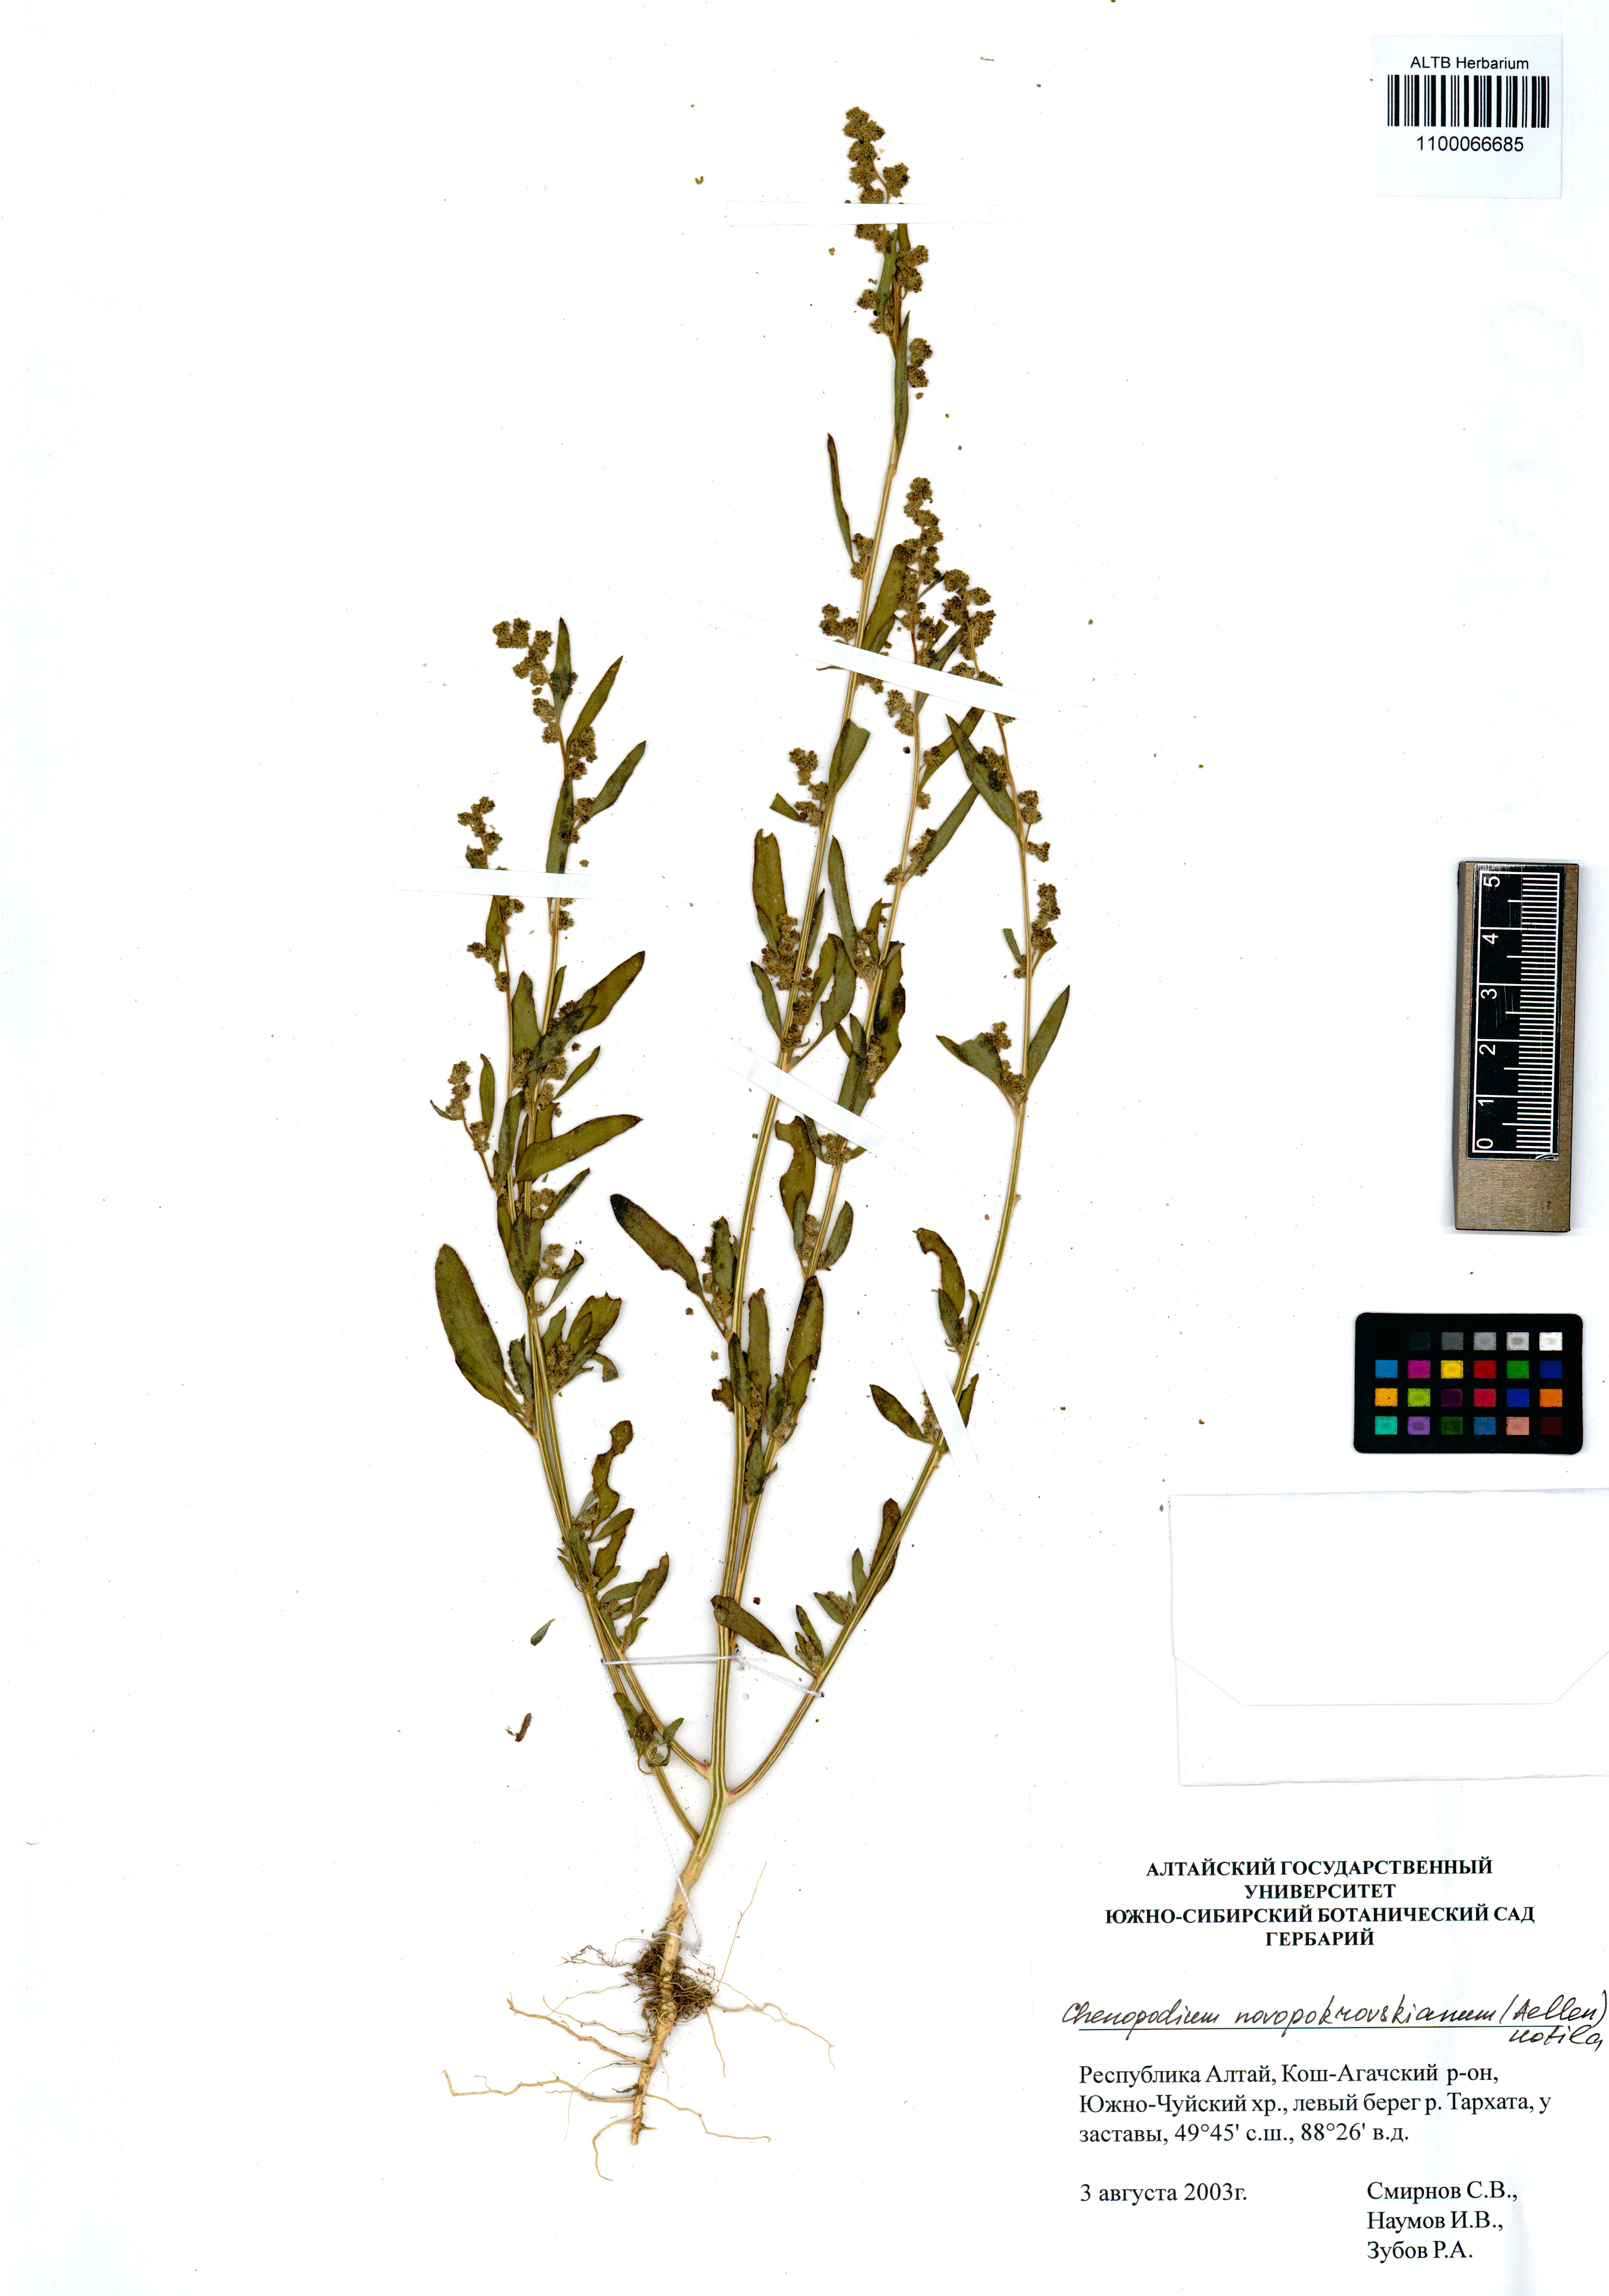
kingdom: Plantae
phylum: Tracheophyta
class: Magnoliopsida
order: Caryophyllales
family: Amaranthaceae
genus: Chenopodium
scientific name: Chenopodium novopokrovskyanum
